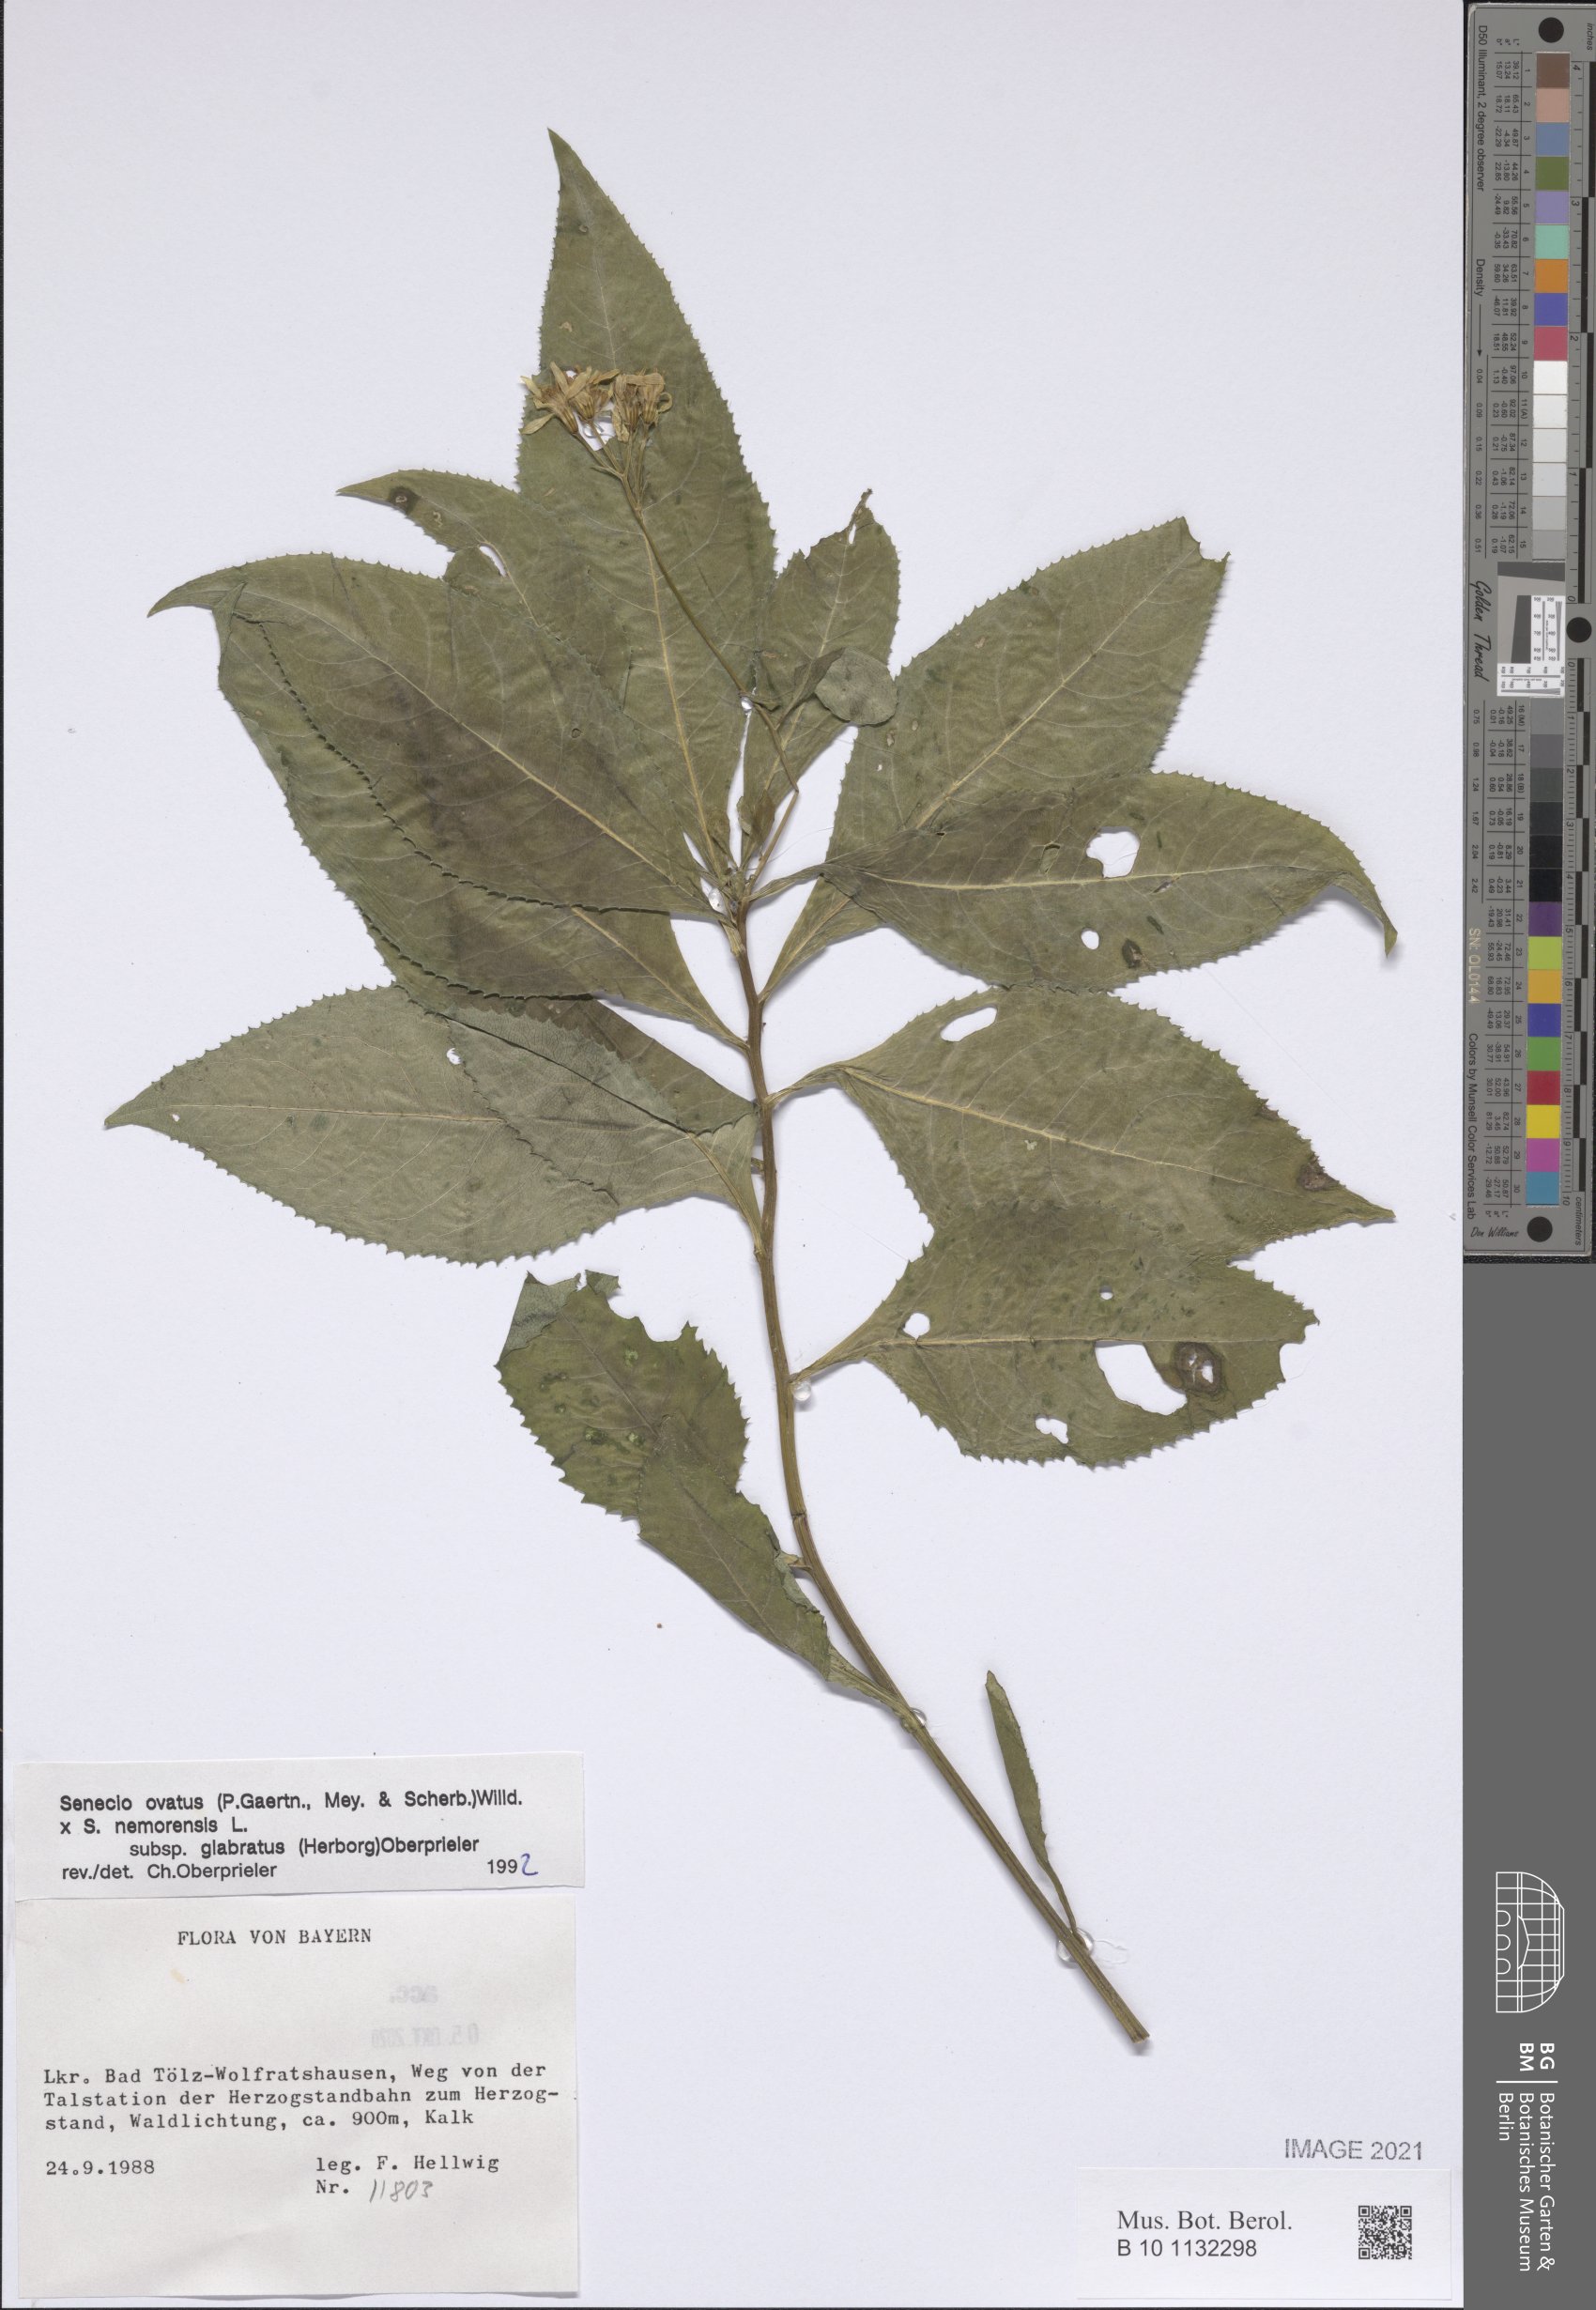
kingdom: Plantae
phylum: Tracheophyta
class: Magnoliopsida
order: Asterales
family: Asteraceae
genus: Senecio
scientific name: Senecio ovatus
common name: Wood ragwort
